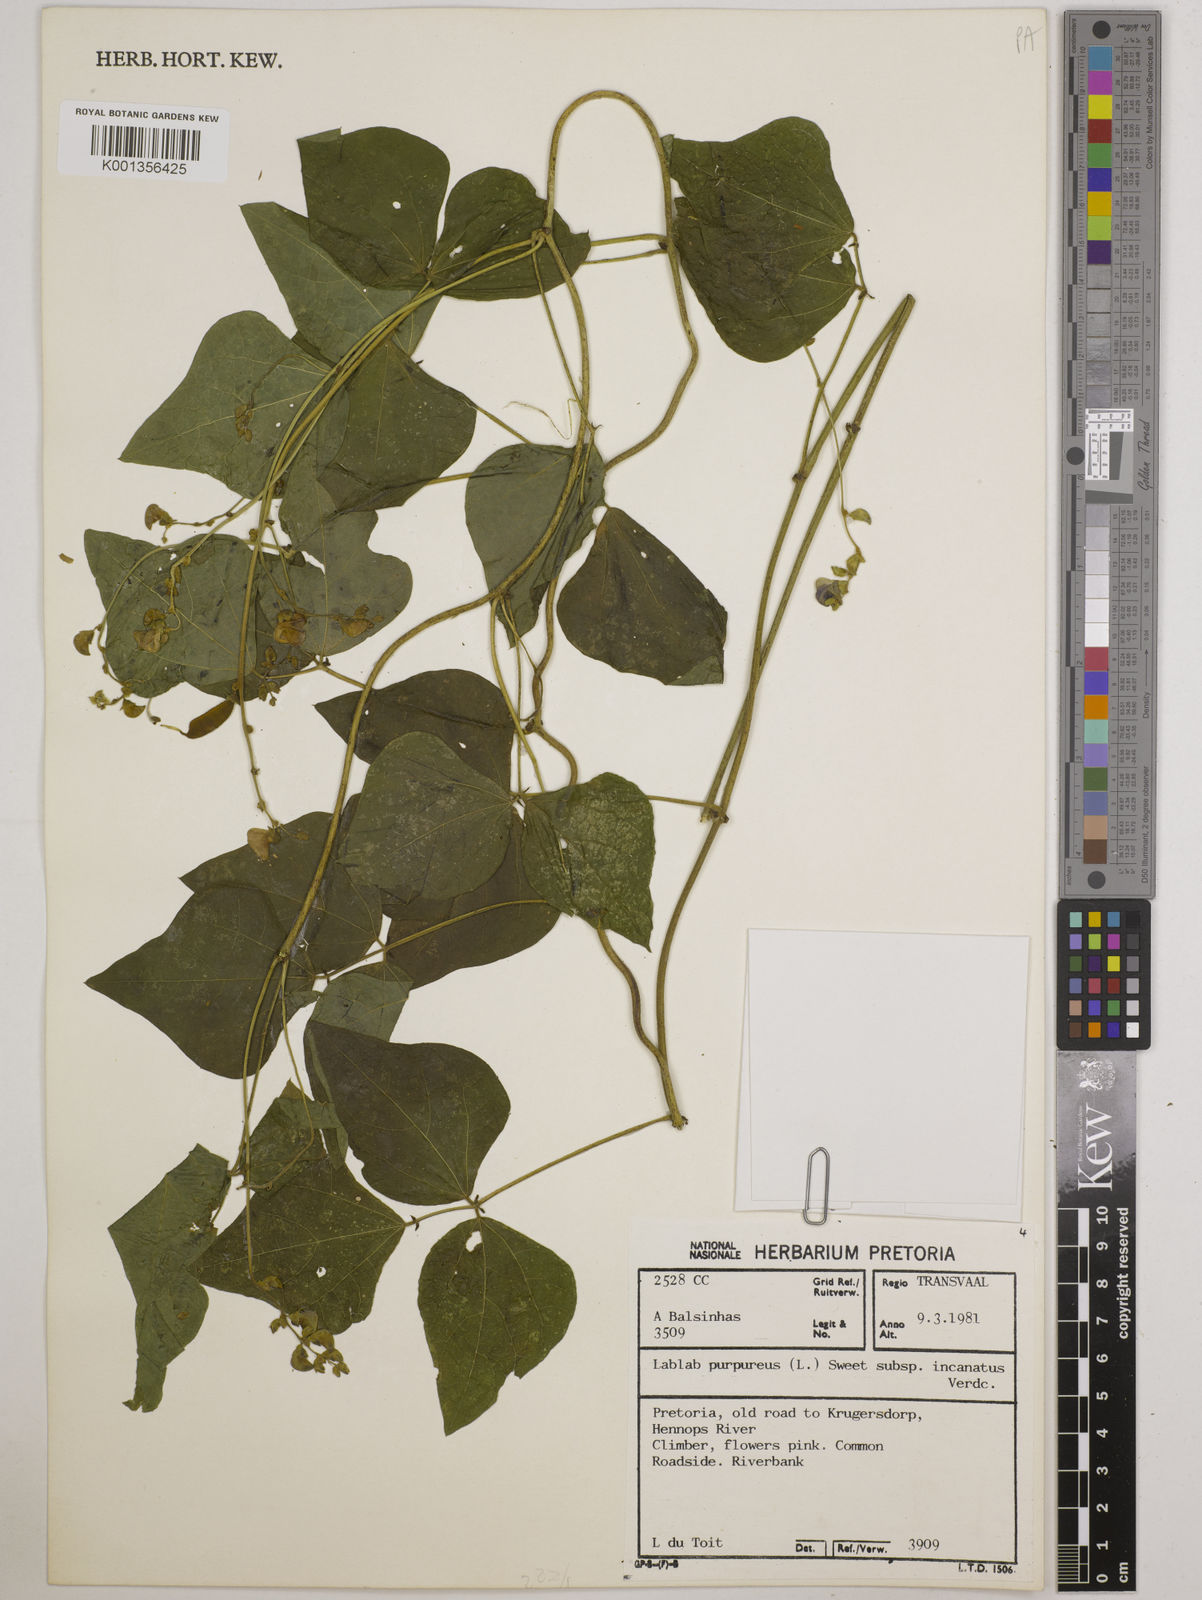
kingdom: Plantae
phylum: Tracheophyta
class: Magnoliopsida
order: Fabales
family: Fabaceae
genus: Lablab
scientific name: Lablab purpureus
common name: Lablab-bean
